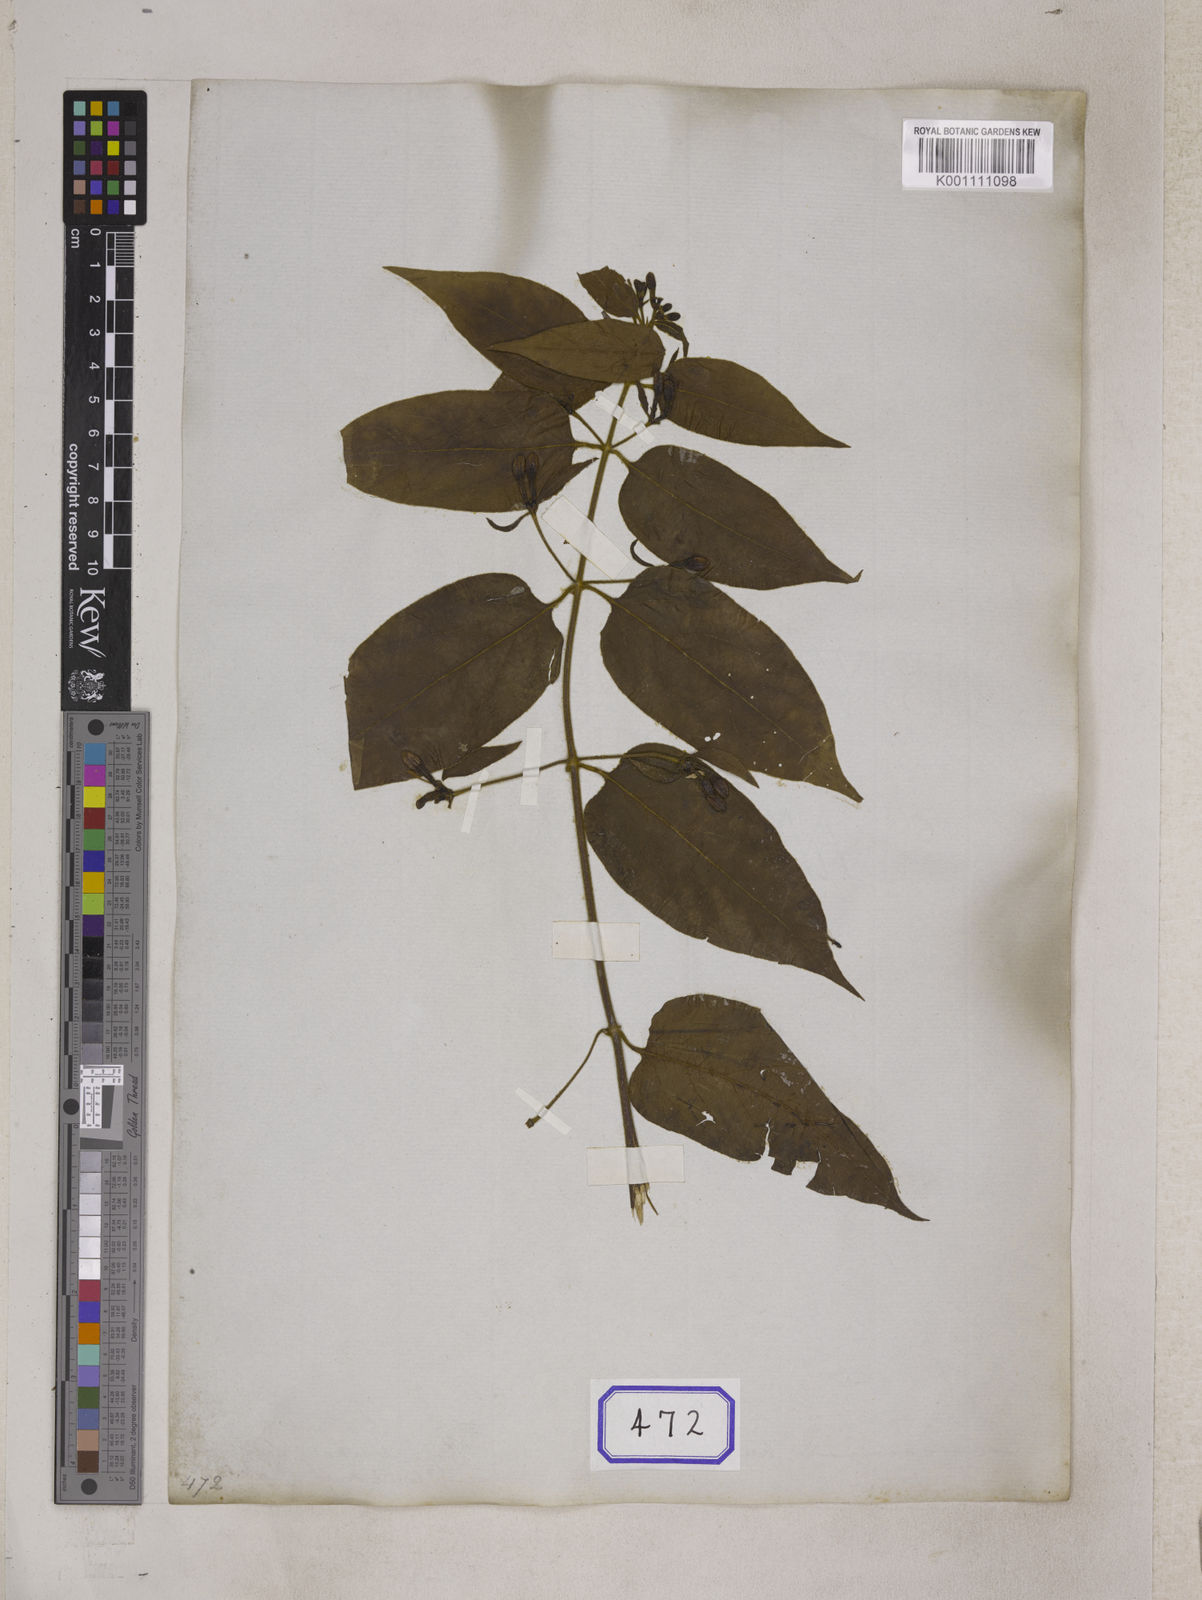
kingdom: Plantae
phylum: Tracheophyta
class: Magnoliopsida
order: Dipsacales
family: Caprifoliaceae
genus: Lonicera
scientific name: Lonicera acuminata
